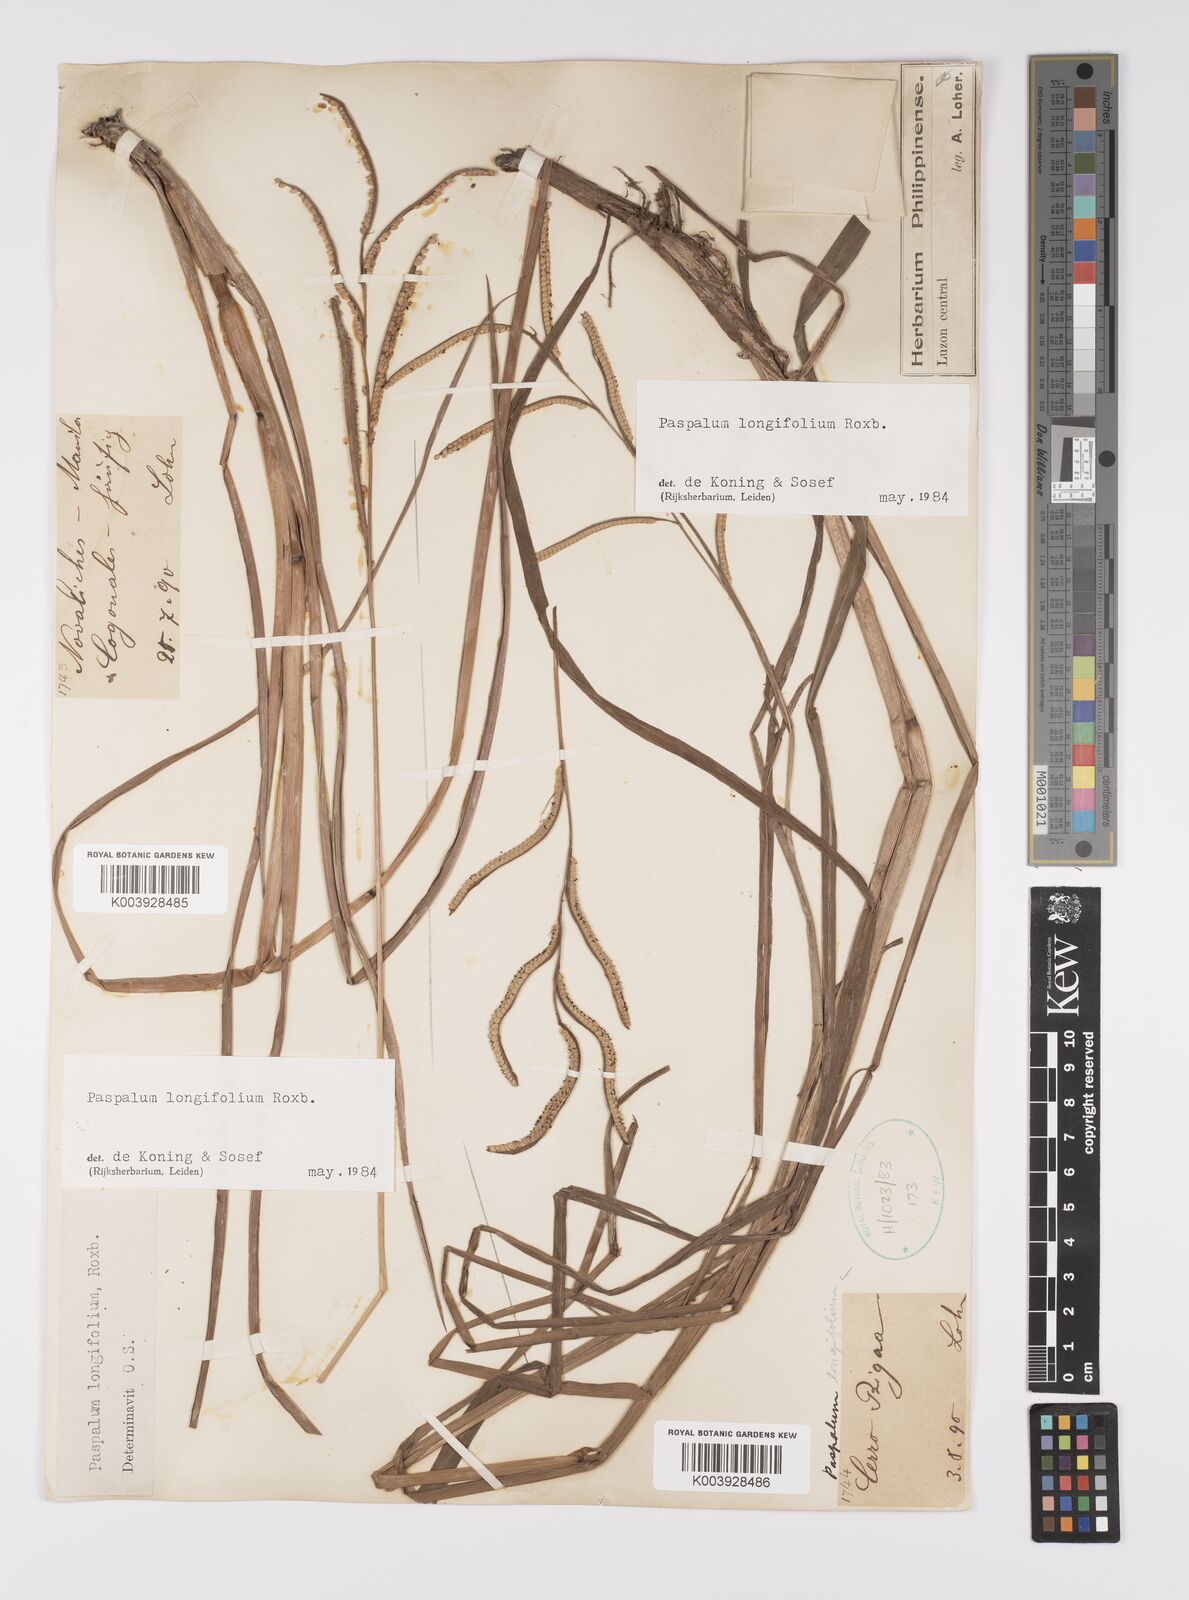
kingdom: Plantae
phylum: Tracheophyta
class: Liliopsida
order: Poales
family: Poaceae
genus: Paspalum
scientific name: Paspalum sumatrense
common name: Long-leaved paspalum
